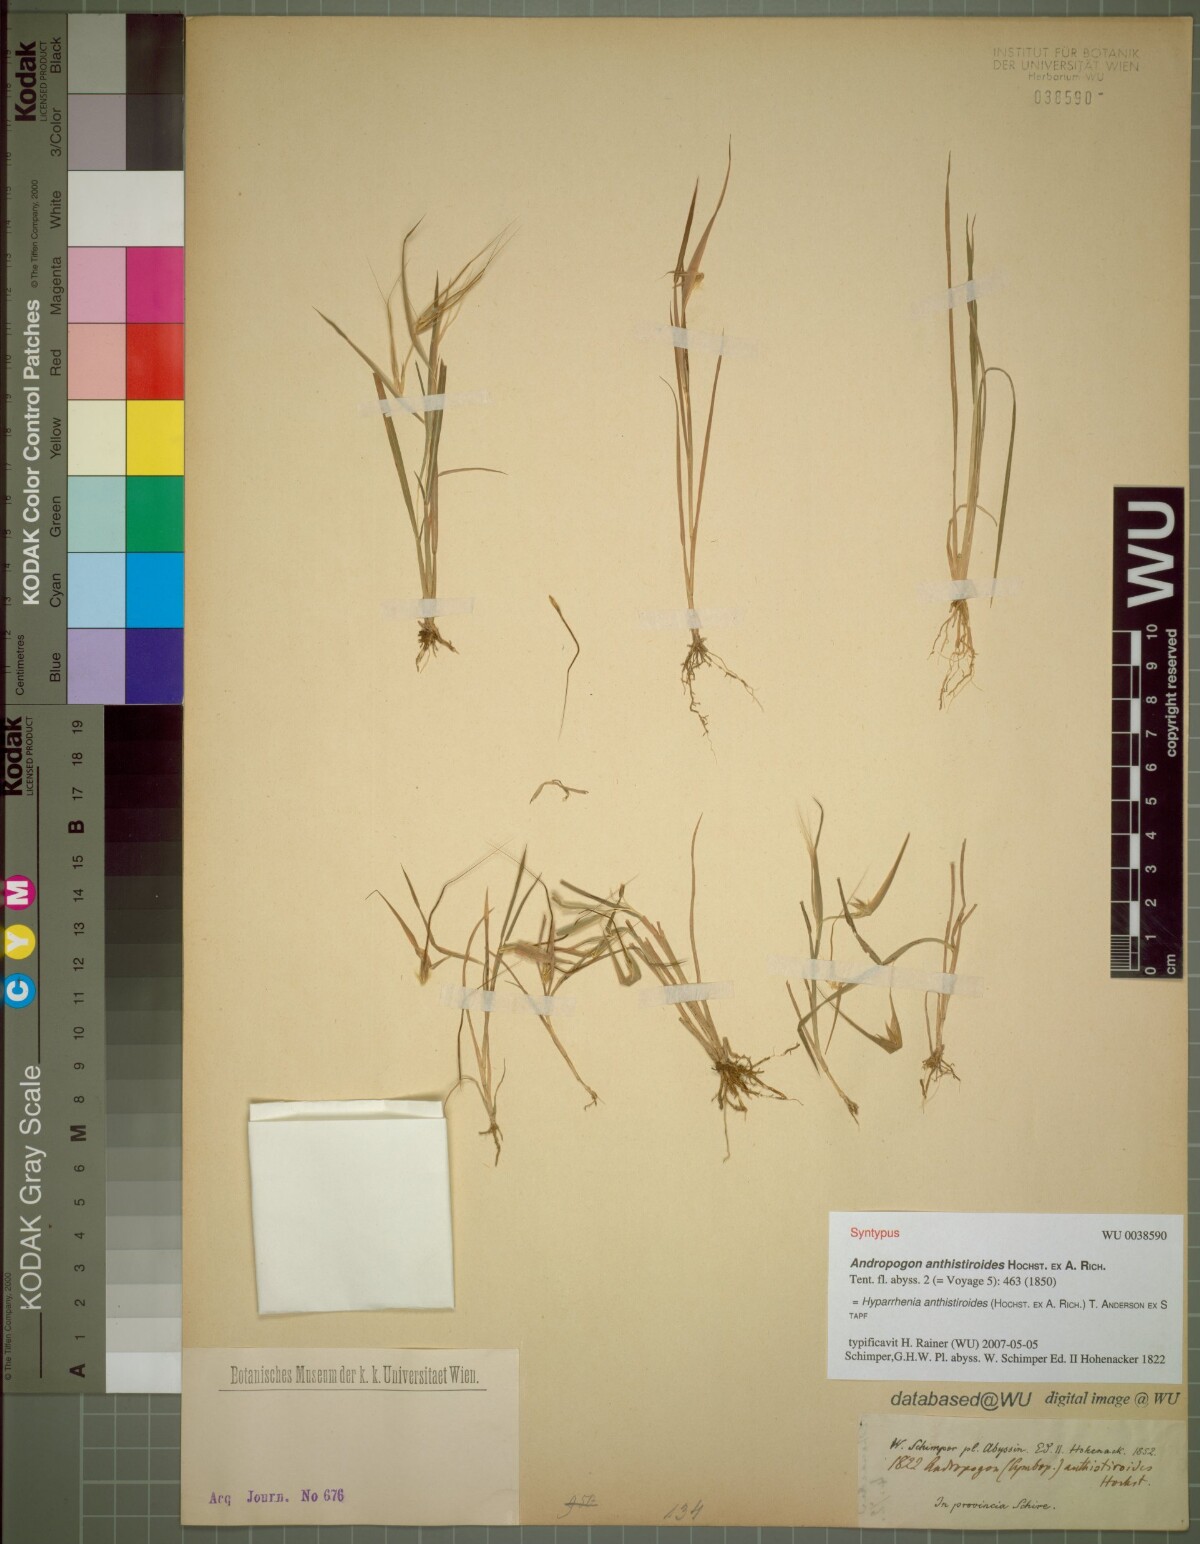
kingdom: Plantae
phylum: Tracheophyta
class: Liliopsida
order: Poales
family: Poaceae
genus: Hyparrhenia
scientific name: Hyparrhenia anthistirioides
